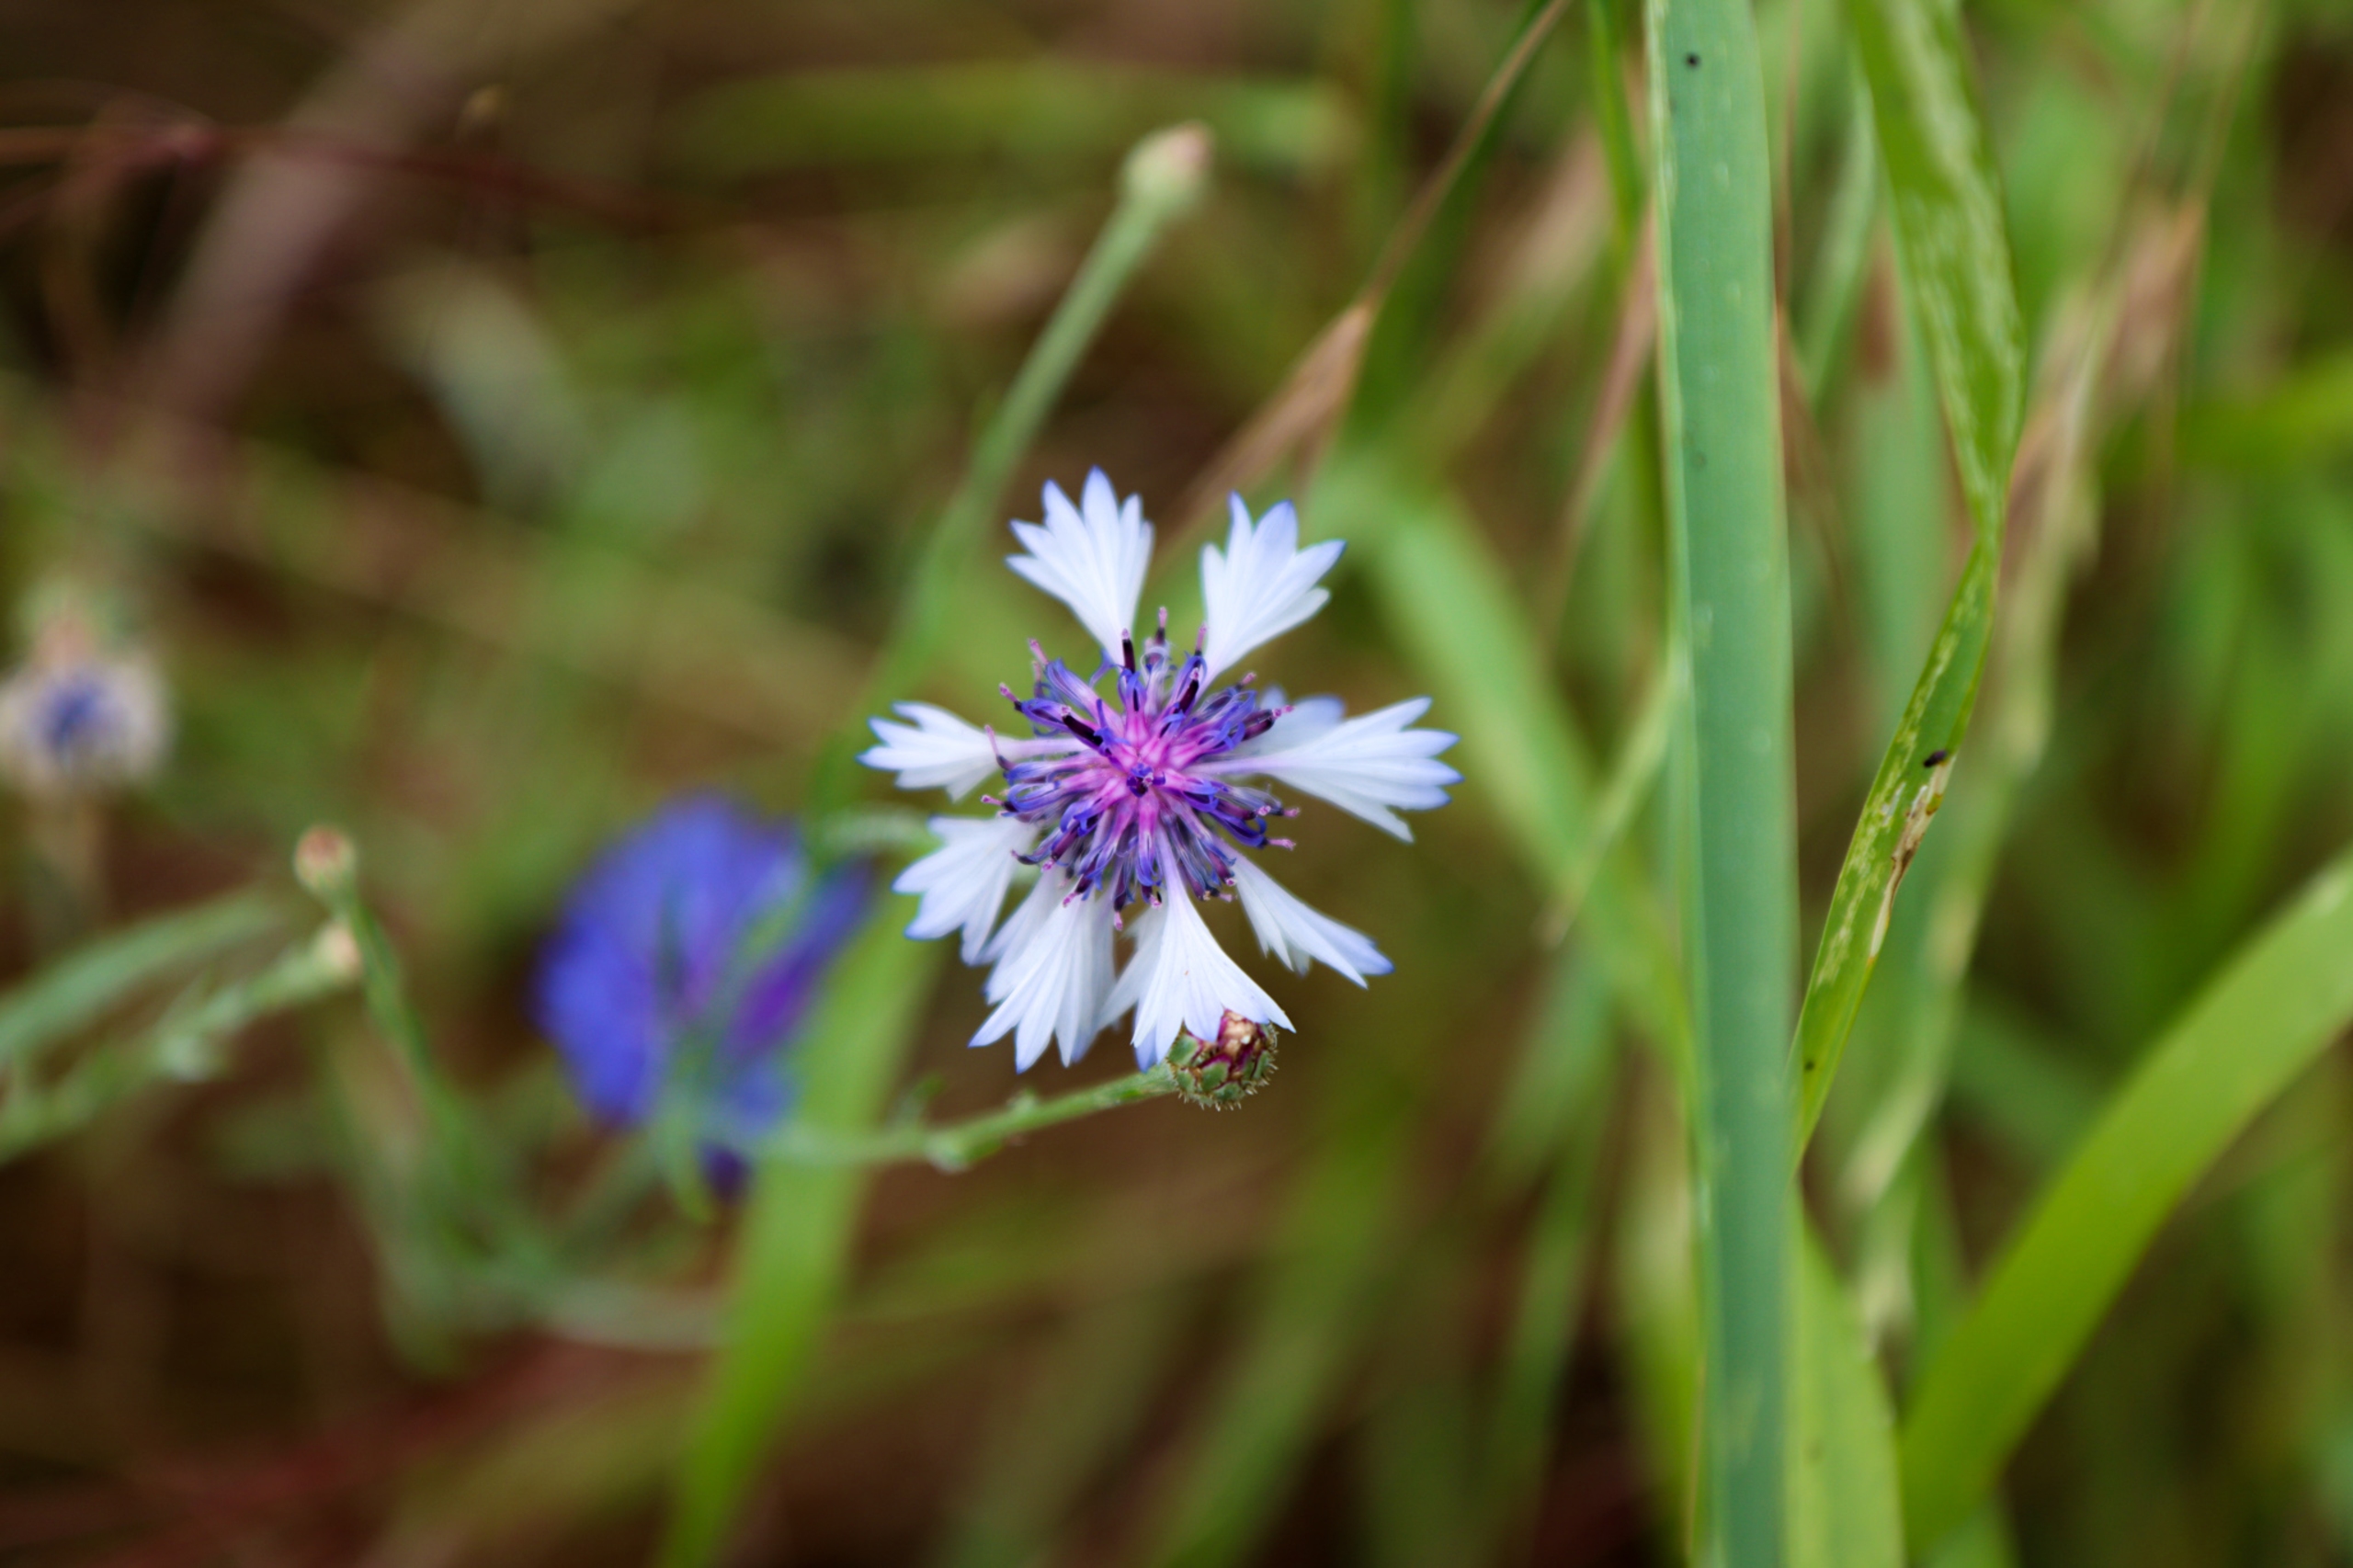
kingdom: Plantae
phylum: Tracheophyta
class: Magnoliopsida
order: Asterales
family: Asteraceae
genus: Centaurea
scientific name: Centaurea cyanus
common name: Kornblomst
